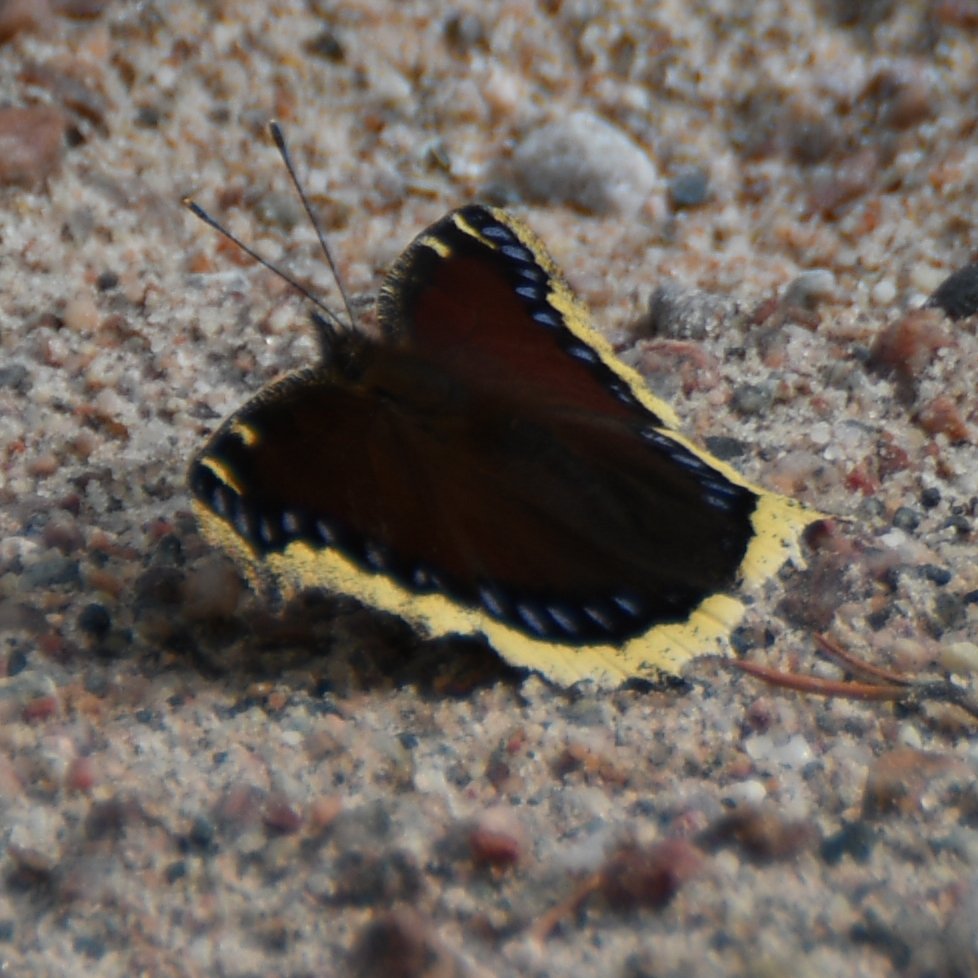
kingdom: Animalia
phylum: Arthropoda
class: Insecta
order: Lepidoptera
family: Nymphalidae
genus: Nymphalis
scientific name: Nymphalis antiopa
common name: Mourning Cloak
